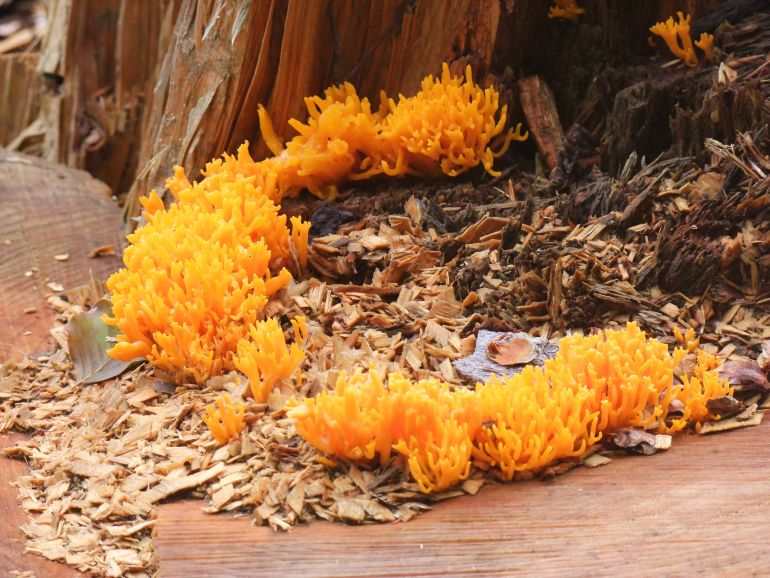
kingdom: Fungi
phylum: Basidiomycota
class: Dacrymycetes
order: Dacrymycetales
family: Dacrymycetaceae
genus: Calocera
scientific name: Calocera viscosa
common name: almindelig guldgaffel
